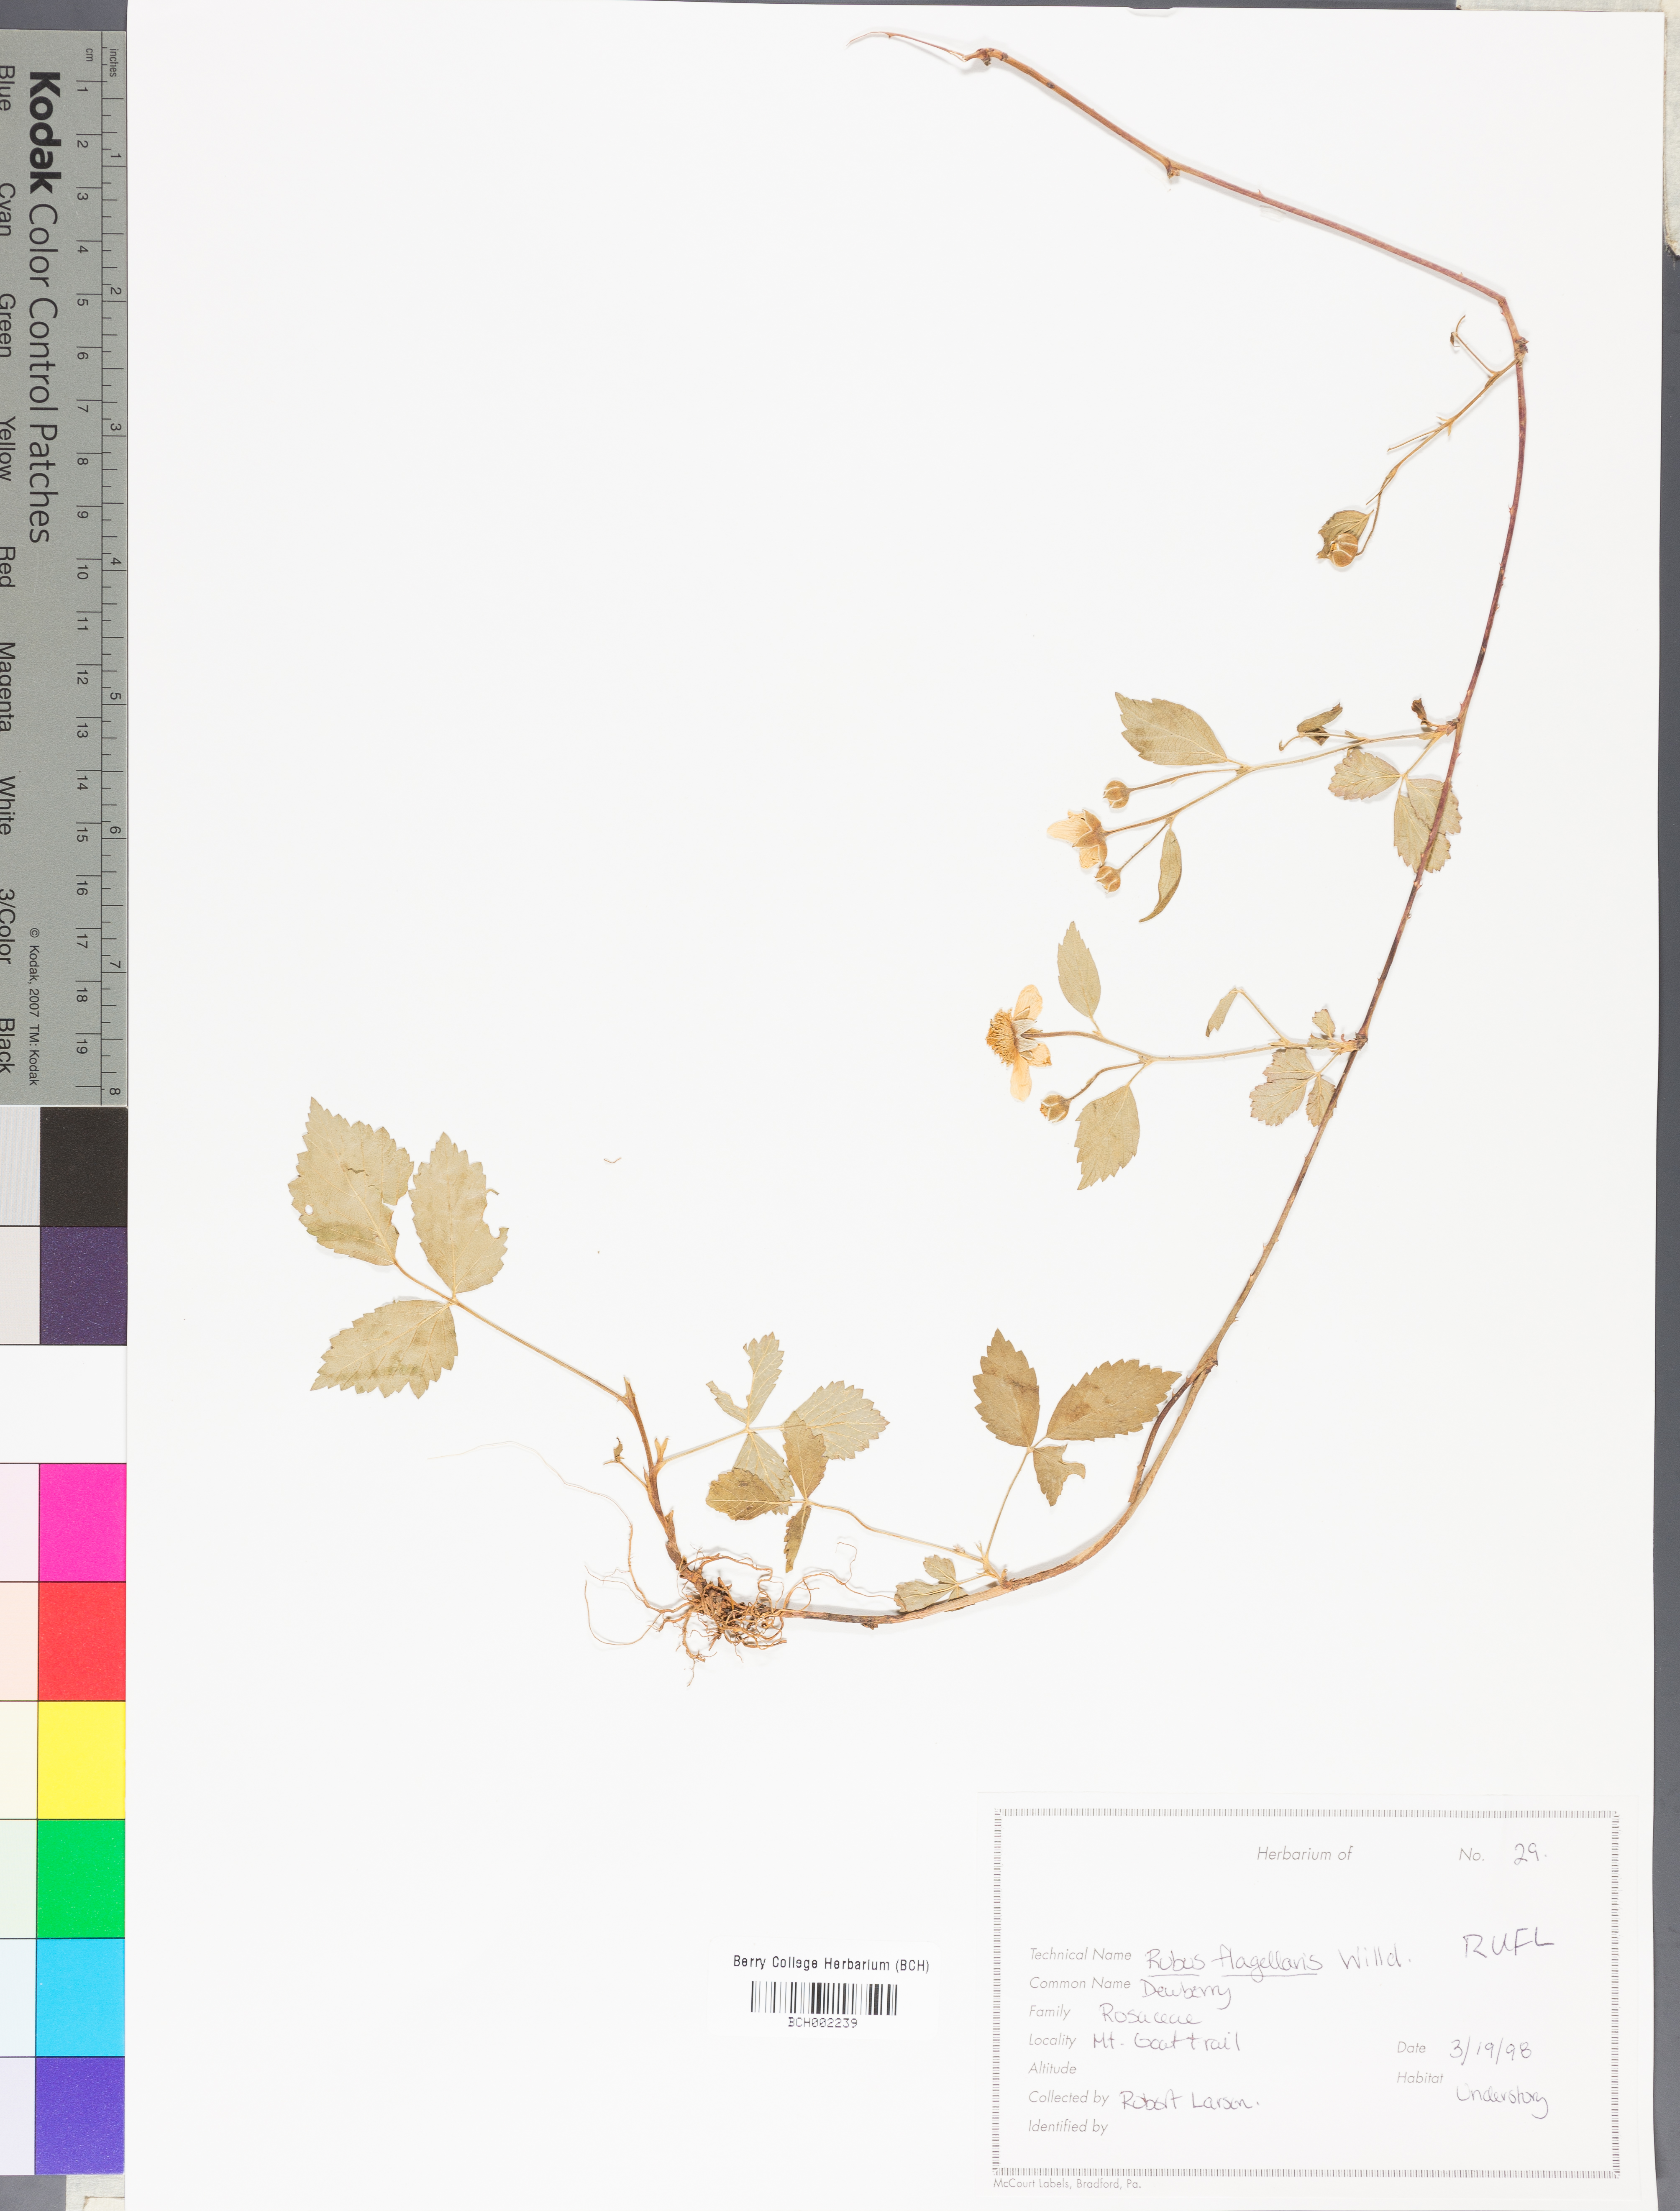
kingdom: Plantae
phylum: Tracheophyta
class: Magnoliopsida
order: Rosales
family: Rosaceae
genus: Rubus
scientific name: Rubus flagellaris
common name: American dewberry
